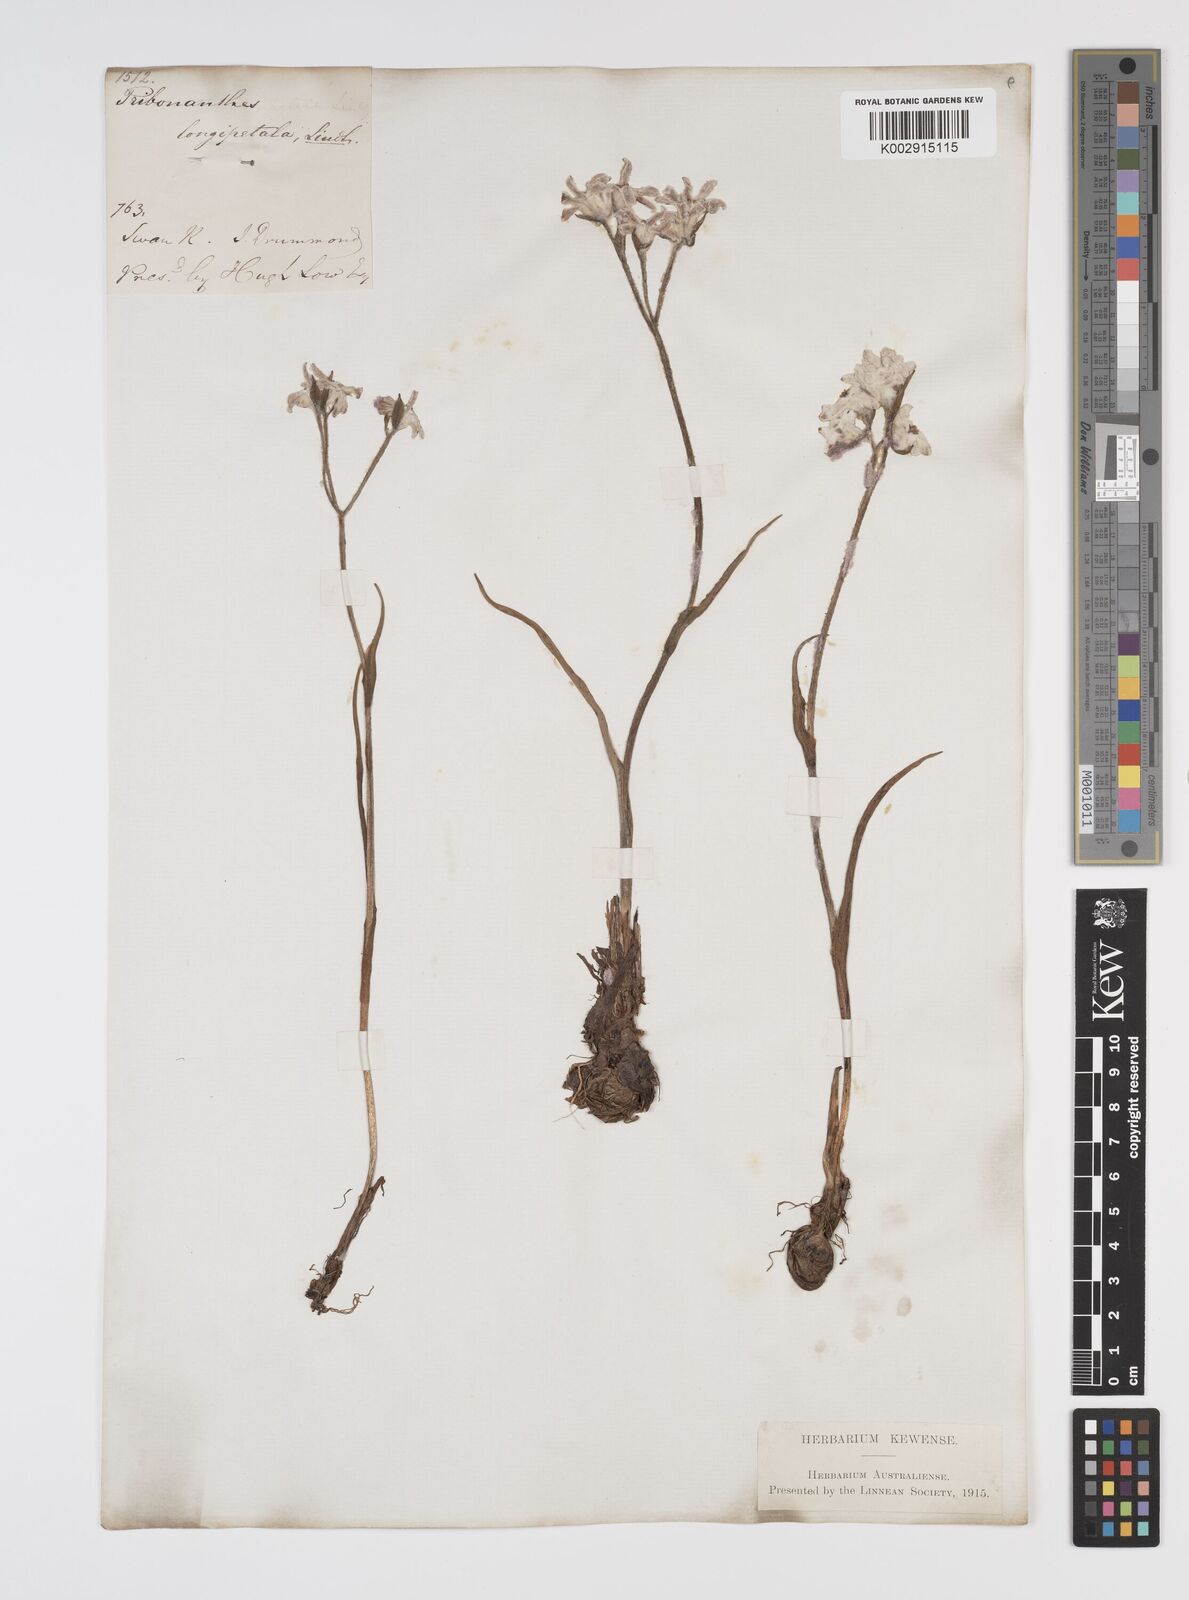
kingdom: Plantae
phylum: Tracheophyta
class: Liliopsida
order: Commelinales
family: Haemodoraceae
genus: Tribonanthes
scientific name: Tribonanthes longipetala
